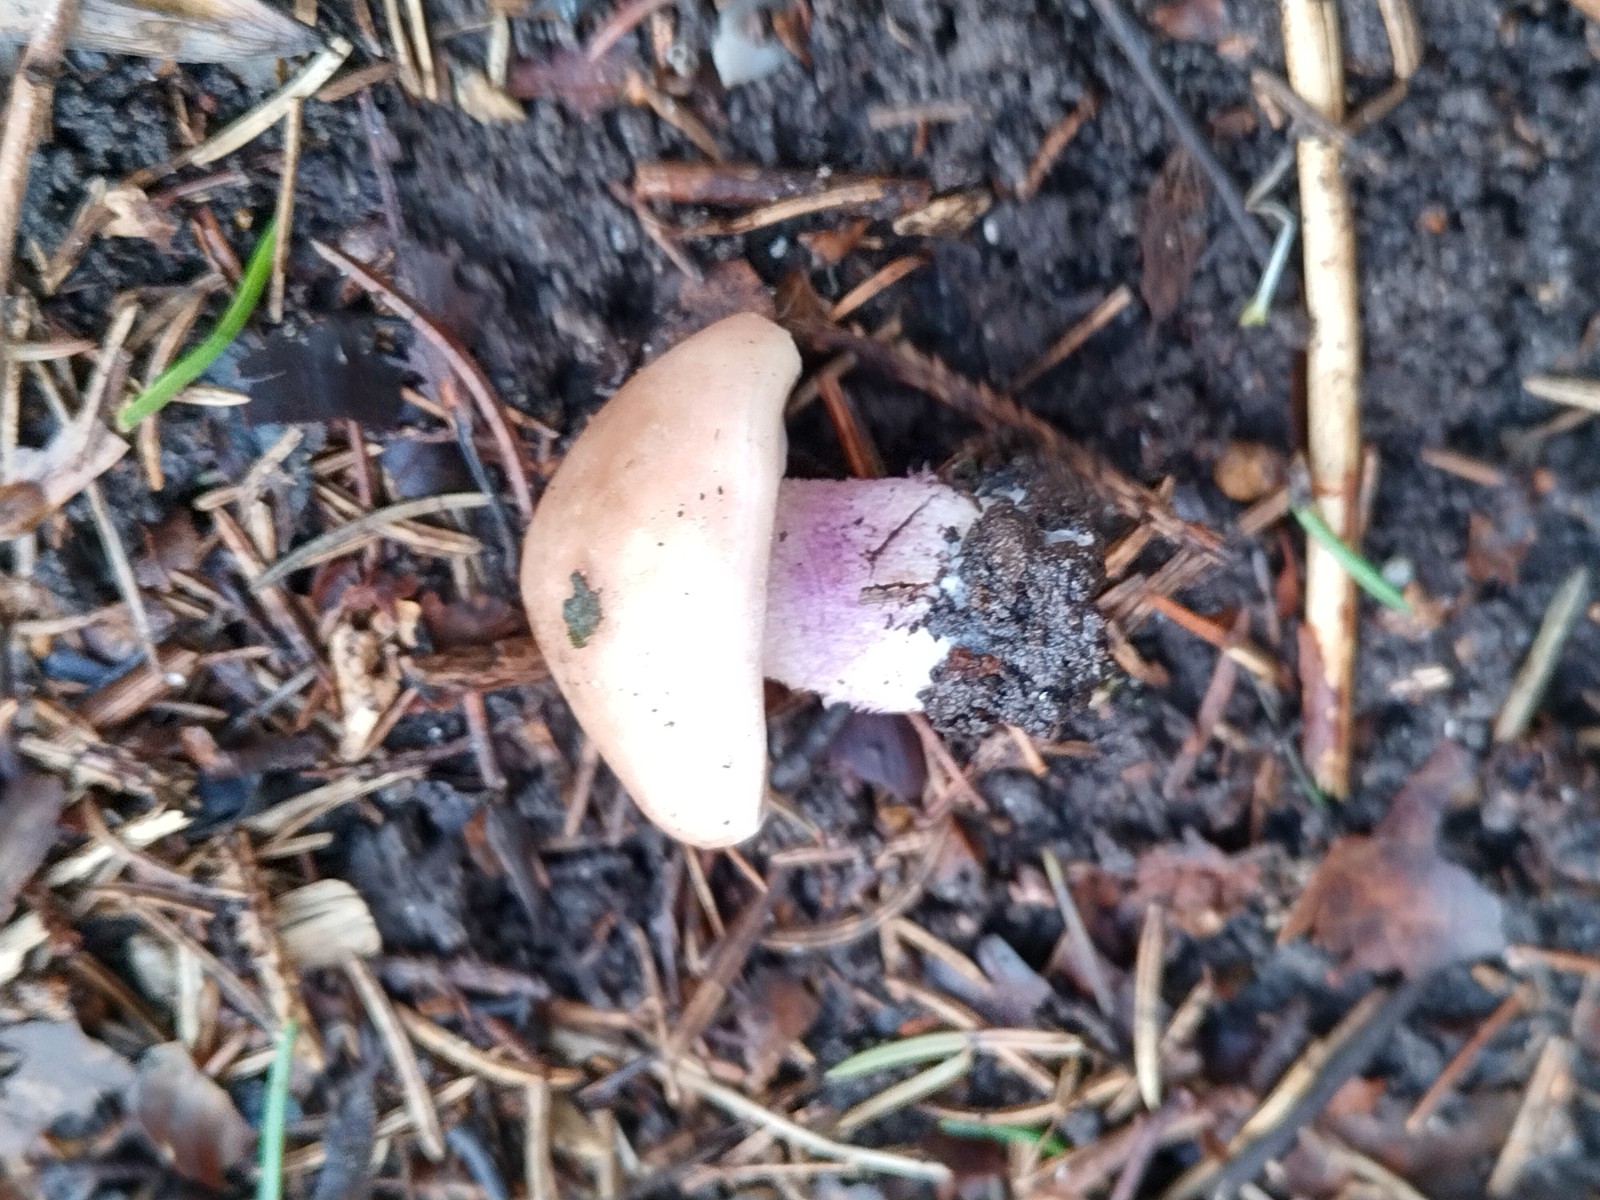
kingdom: Fungi
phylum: Basidiomycota
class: Agaricomycetes
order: Agaricales
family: Tricholomataceae
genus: Lepista
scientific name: Lepista personata
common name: bleg hekseringshat
